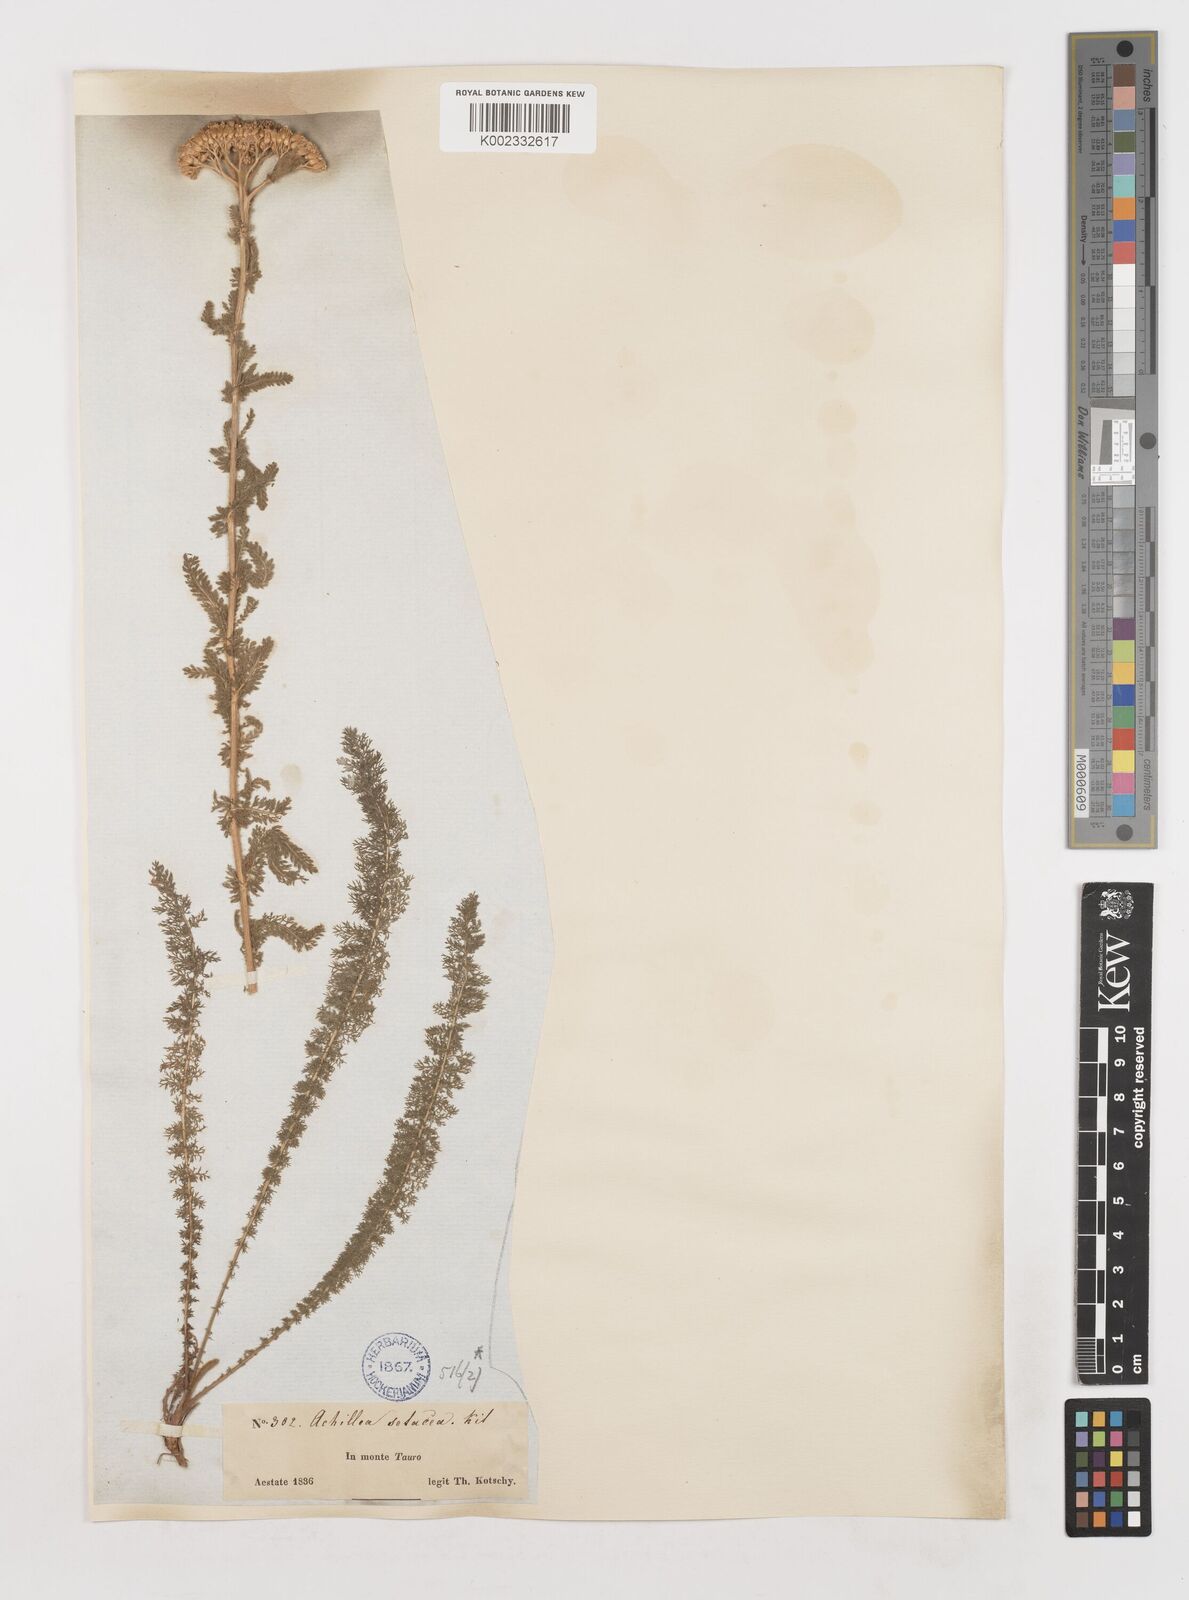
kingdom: Plantae
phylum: Tracheophyta
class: Magnoliopsida
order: Asterales
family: Asteraceae
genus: Achillea
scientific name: Achillea setacea
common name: Bristly yarrow
